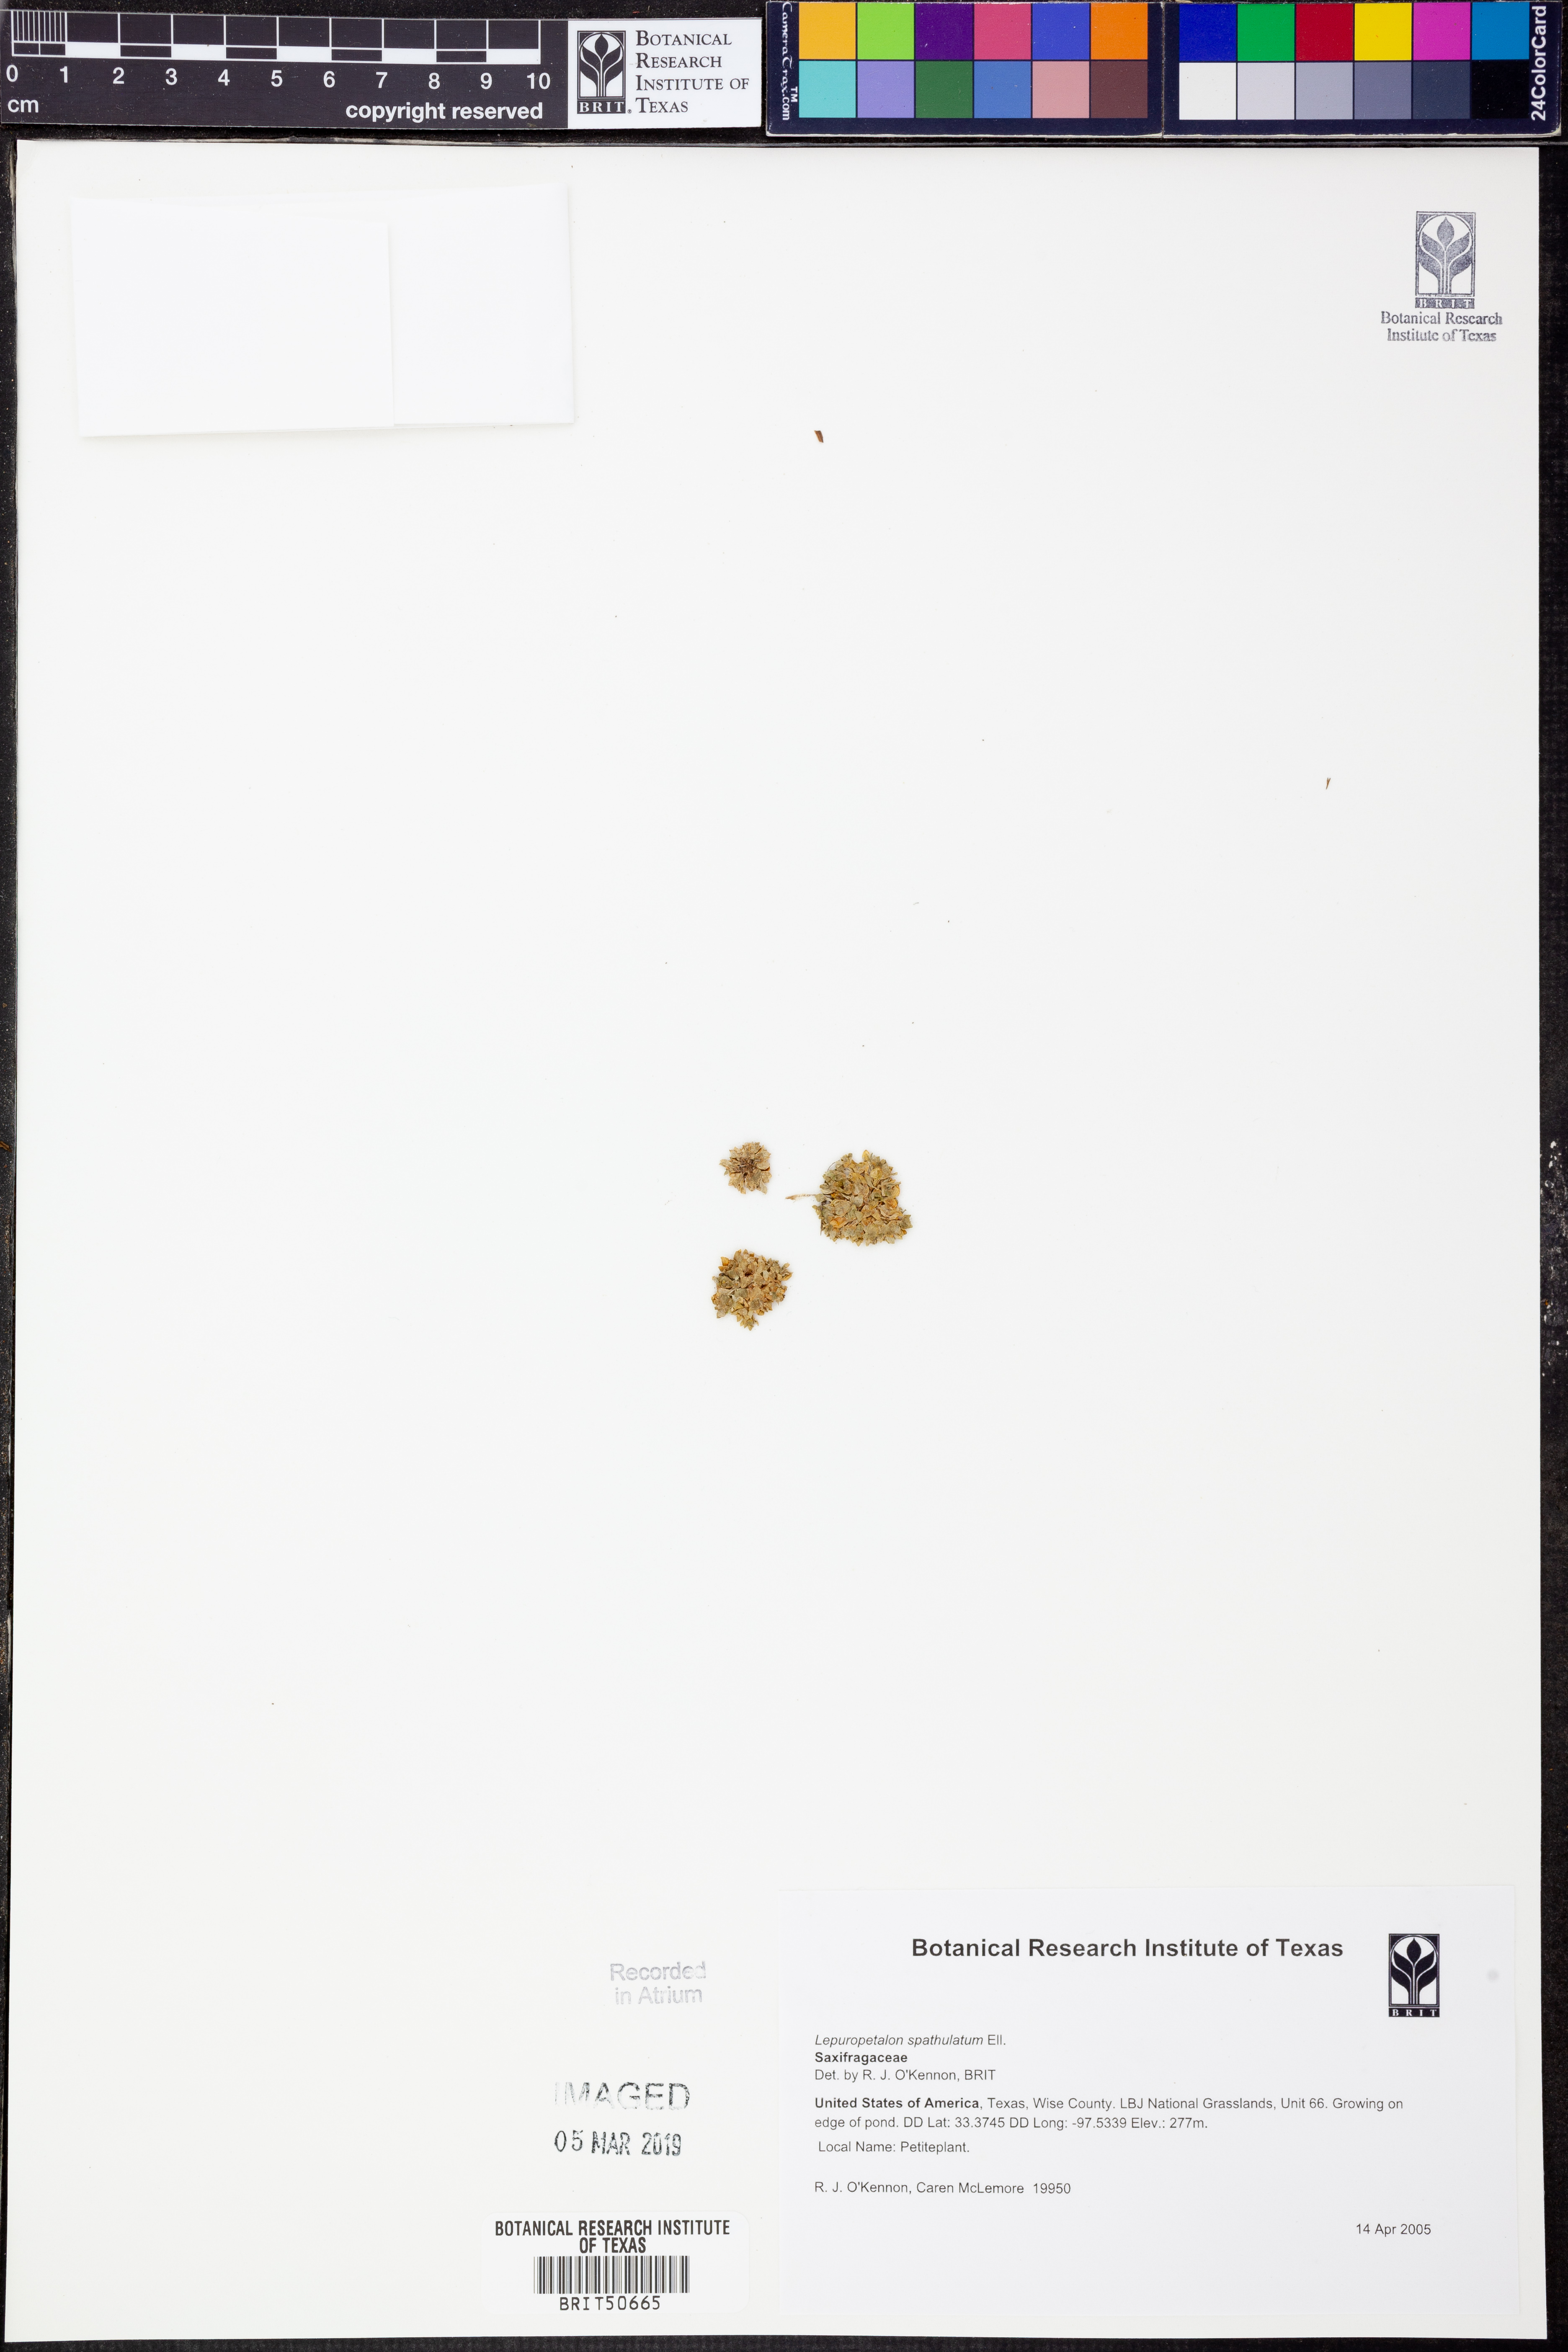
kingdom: Plantae
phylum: Tracheophyta
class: Magnoliopsida
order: Celastrales
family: Parnassiaceae
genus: Lepuropetalon
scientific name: Lepuropetalon spathulatum
